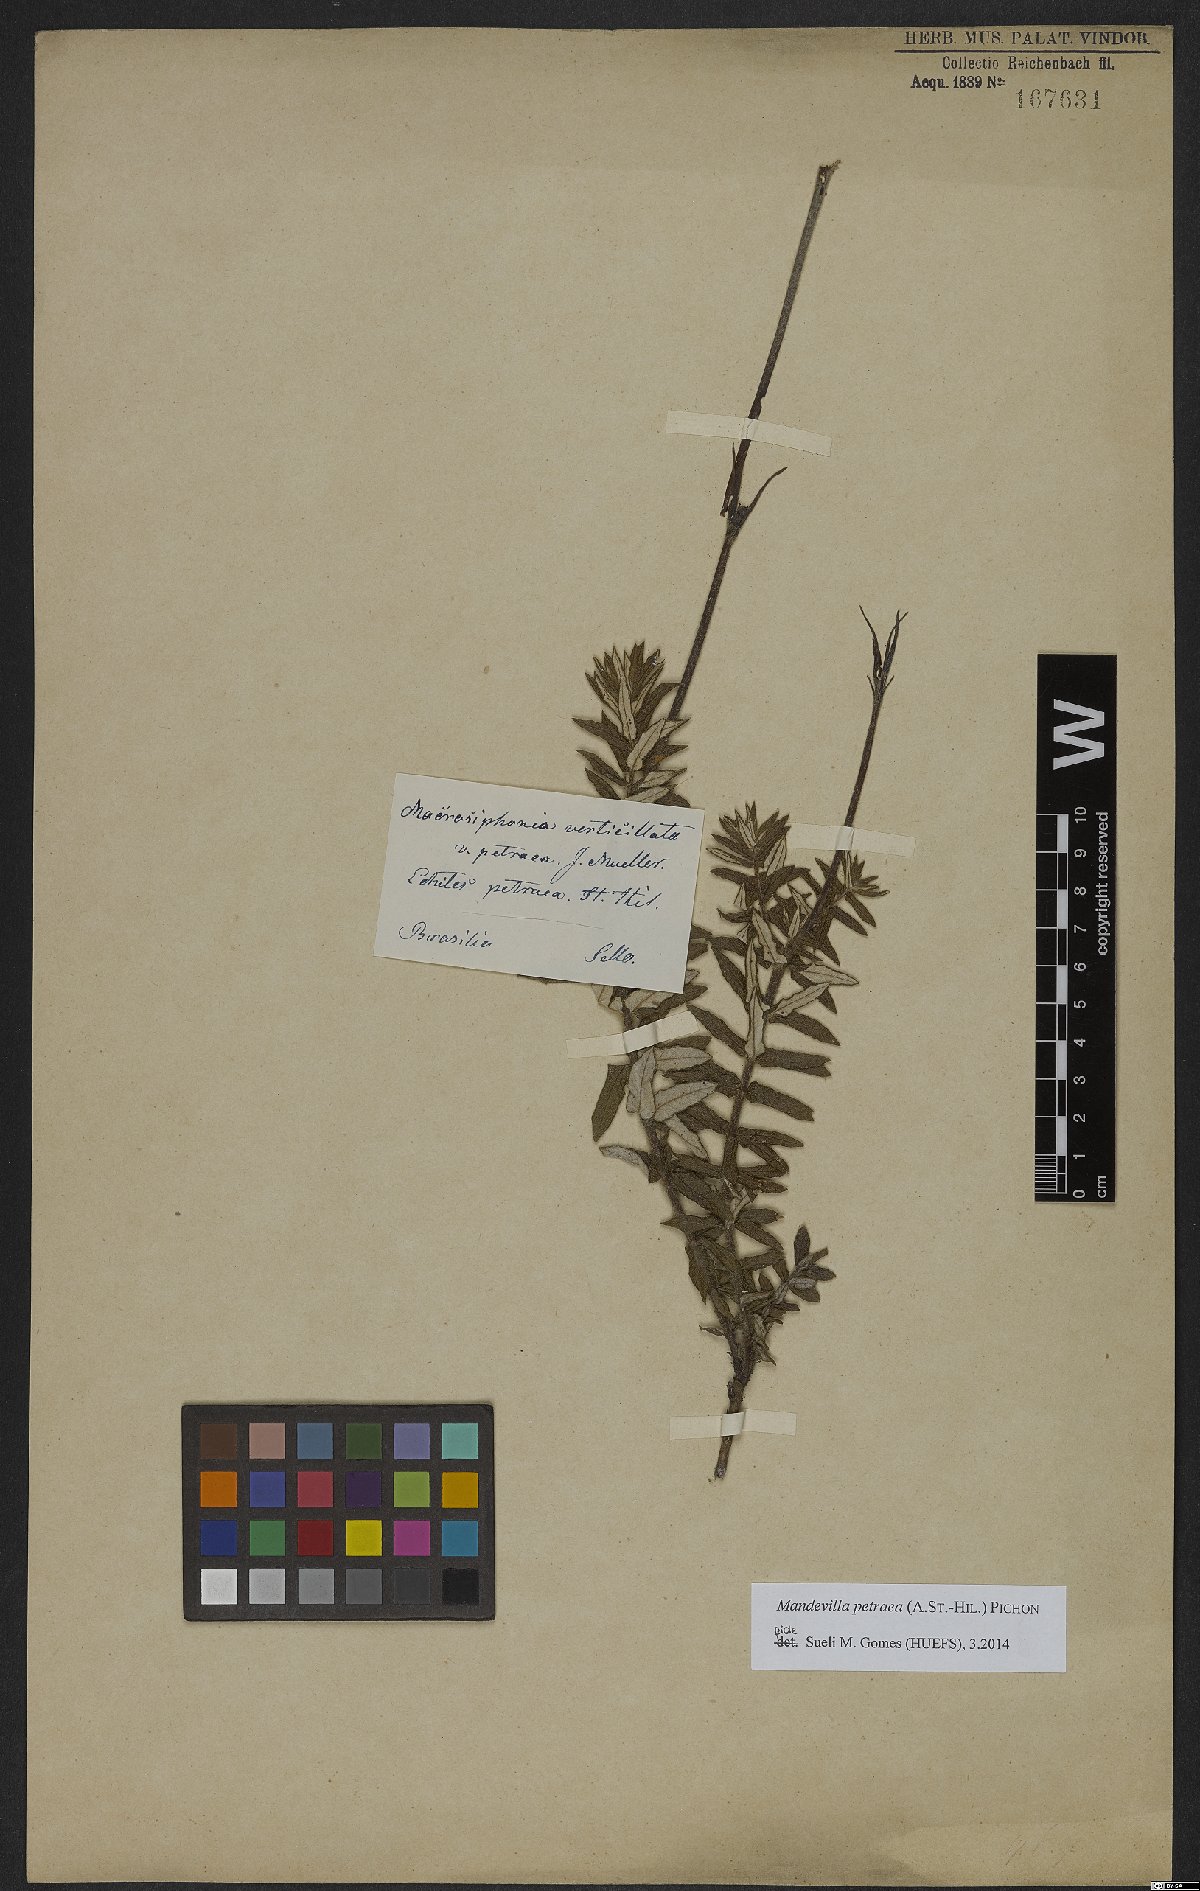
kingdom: Plantae
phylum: Tracheophyta
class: Magnoliopsida
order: Gentianales
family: Apocynaceae
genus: Mandevilla
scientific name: Mandevilla petraea
